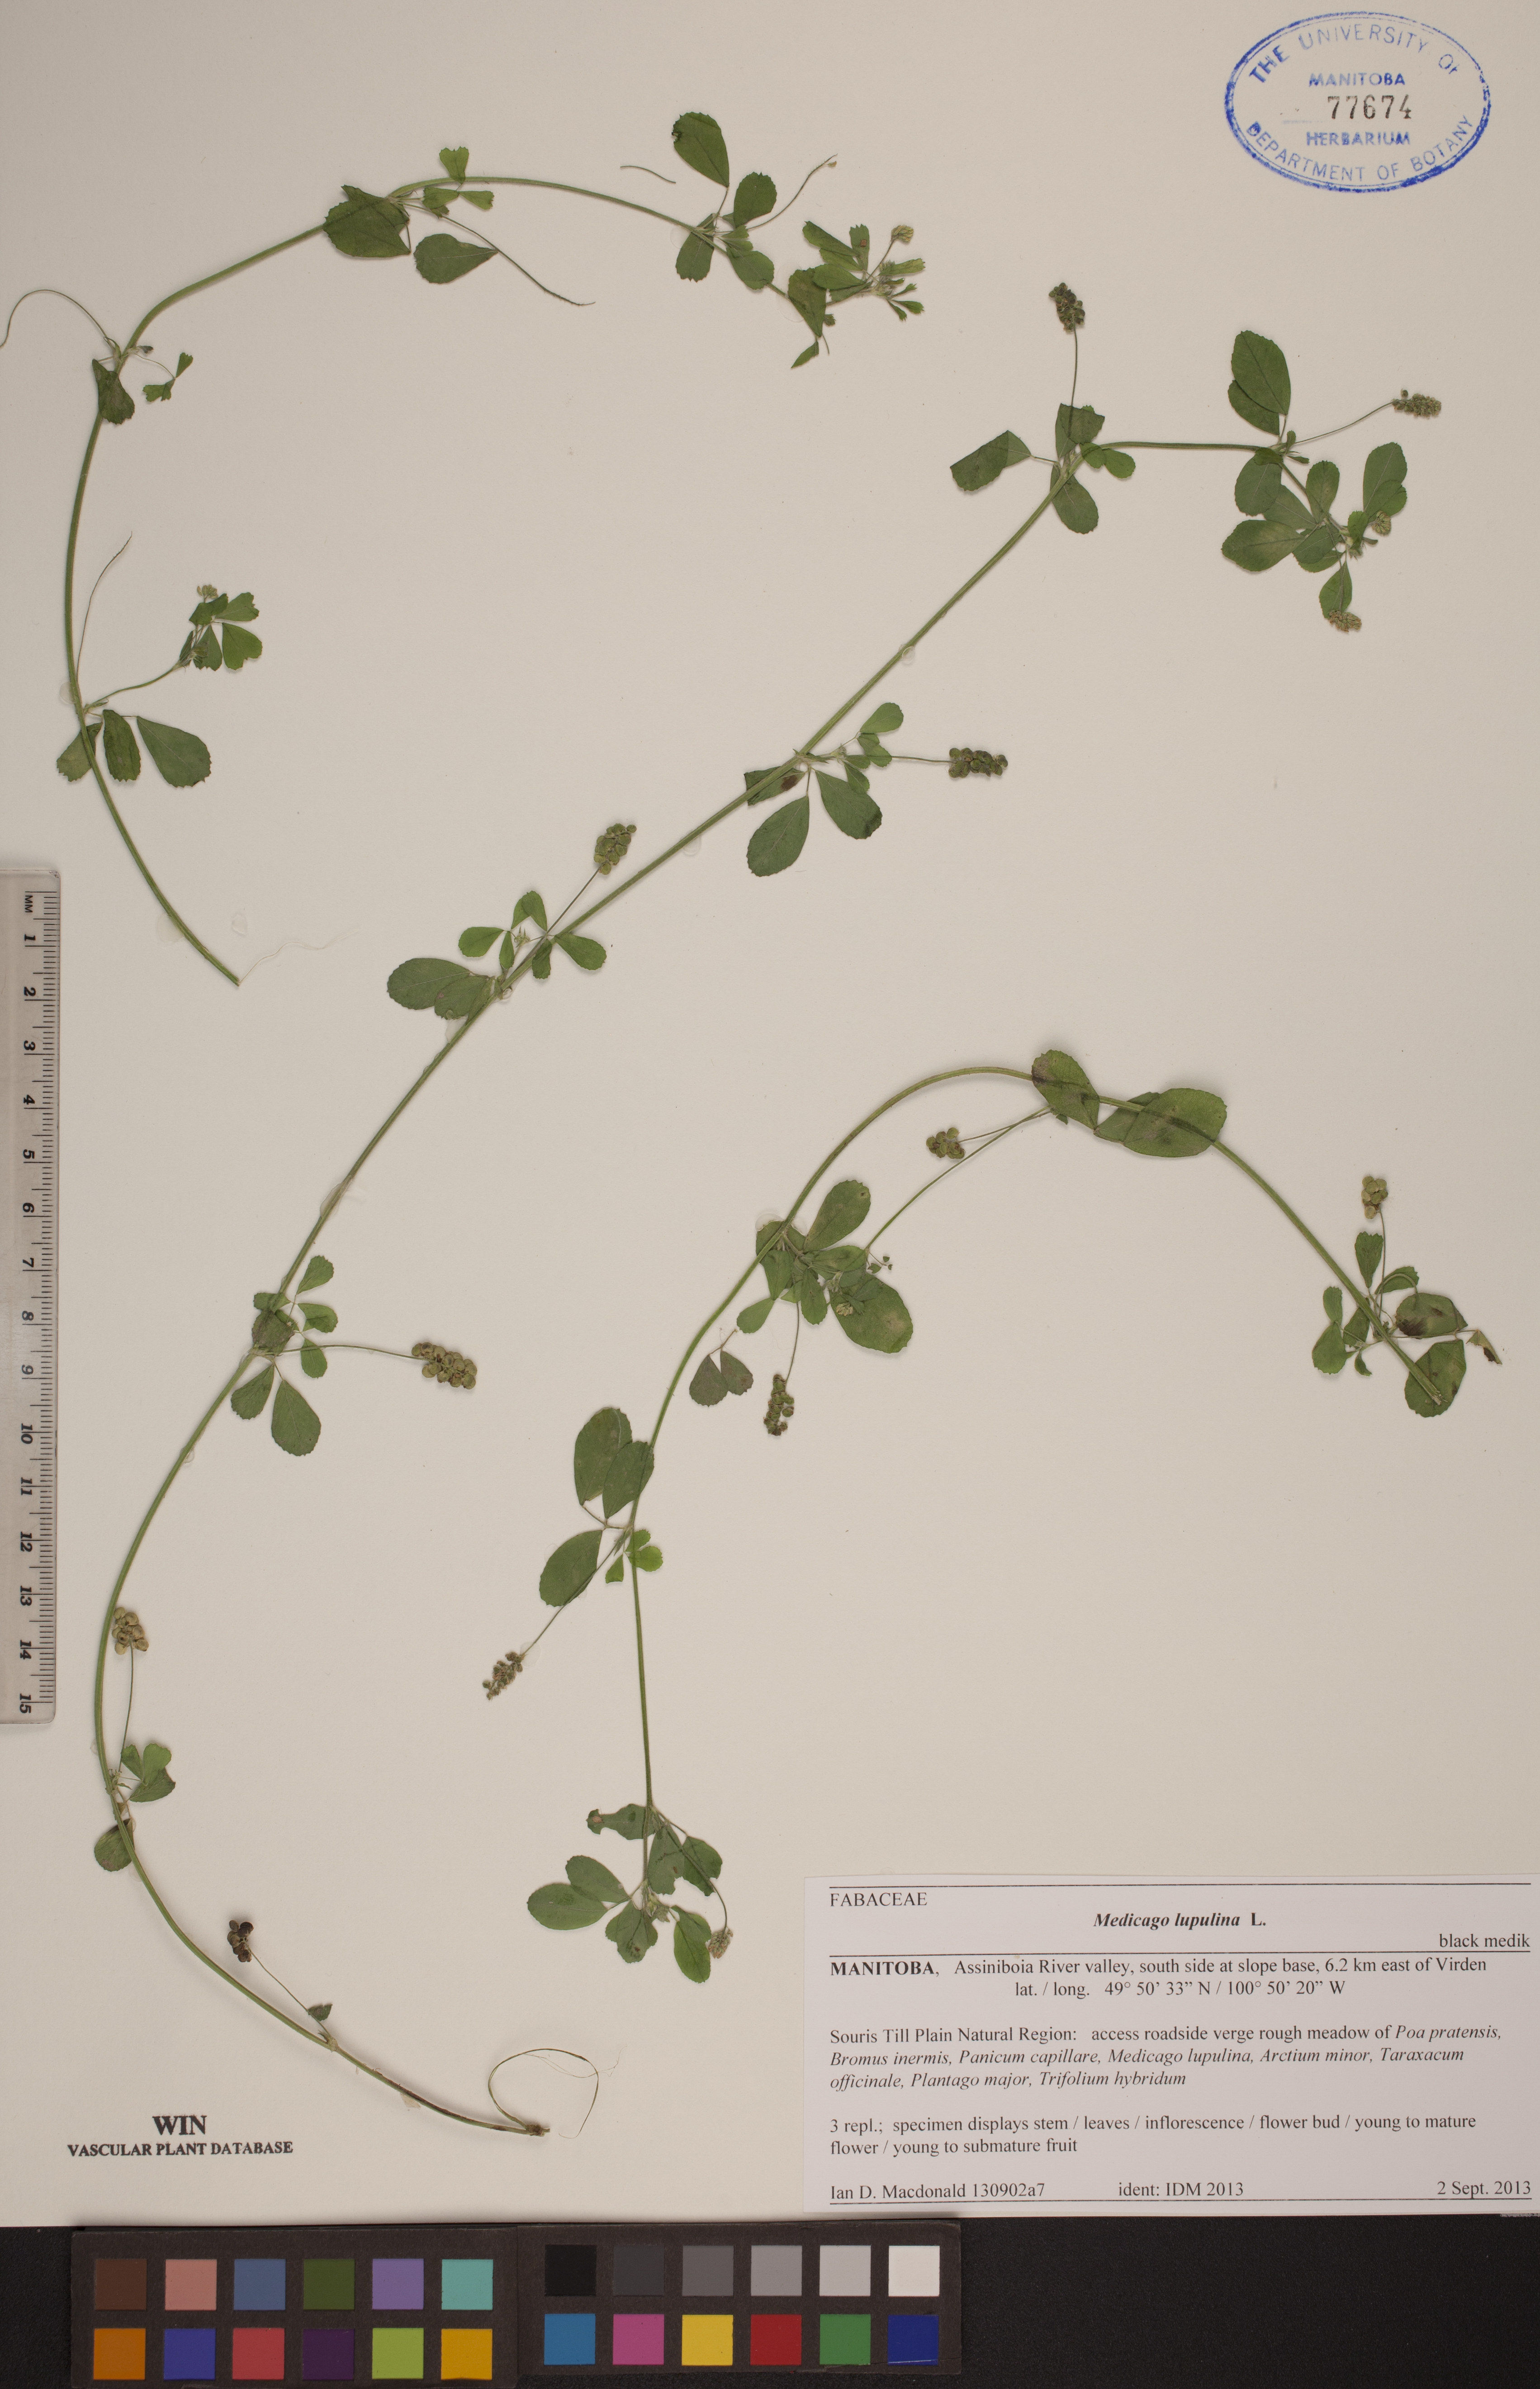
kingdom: Plantae
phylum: Tracheophyta
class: Magnoliopsida
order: Fabales
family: Fabaceae
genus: Medicago
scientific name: Medicago lupulina
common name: Black medick
